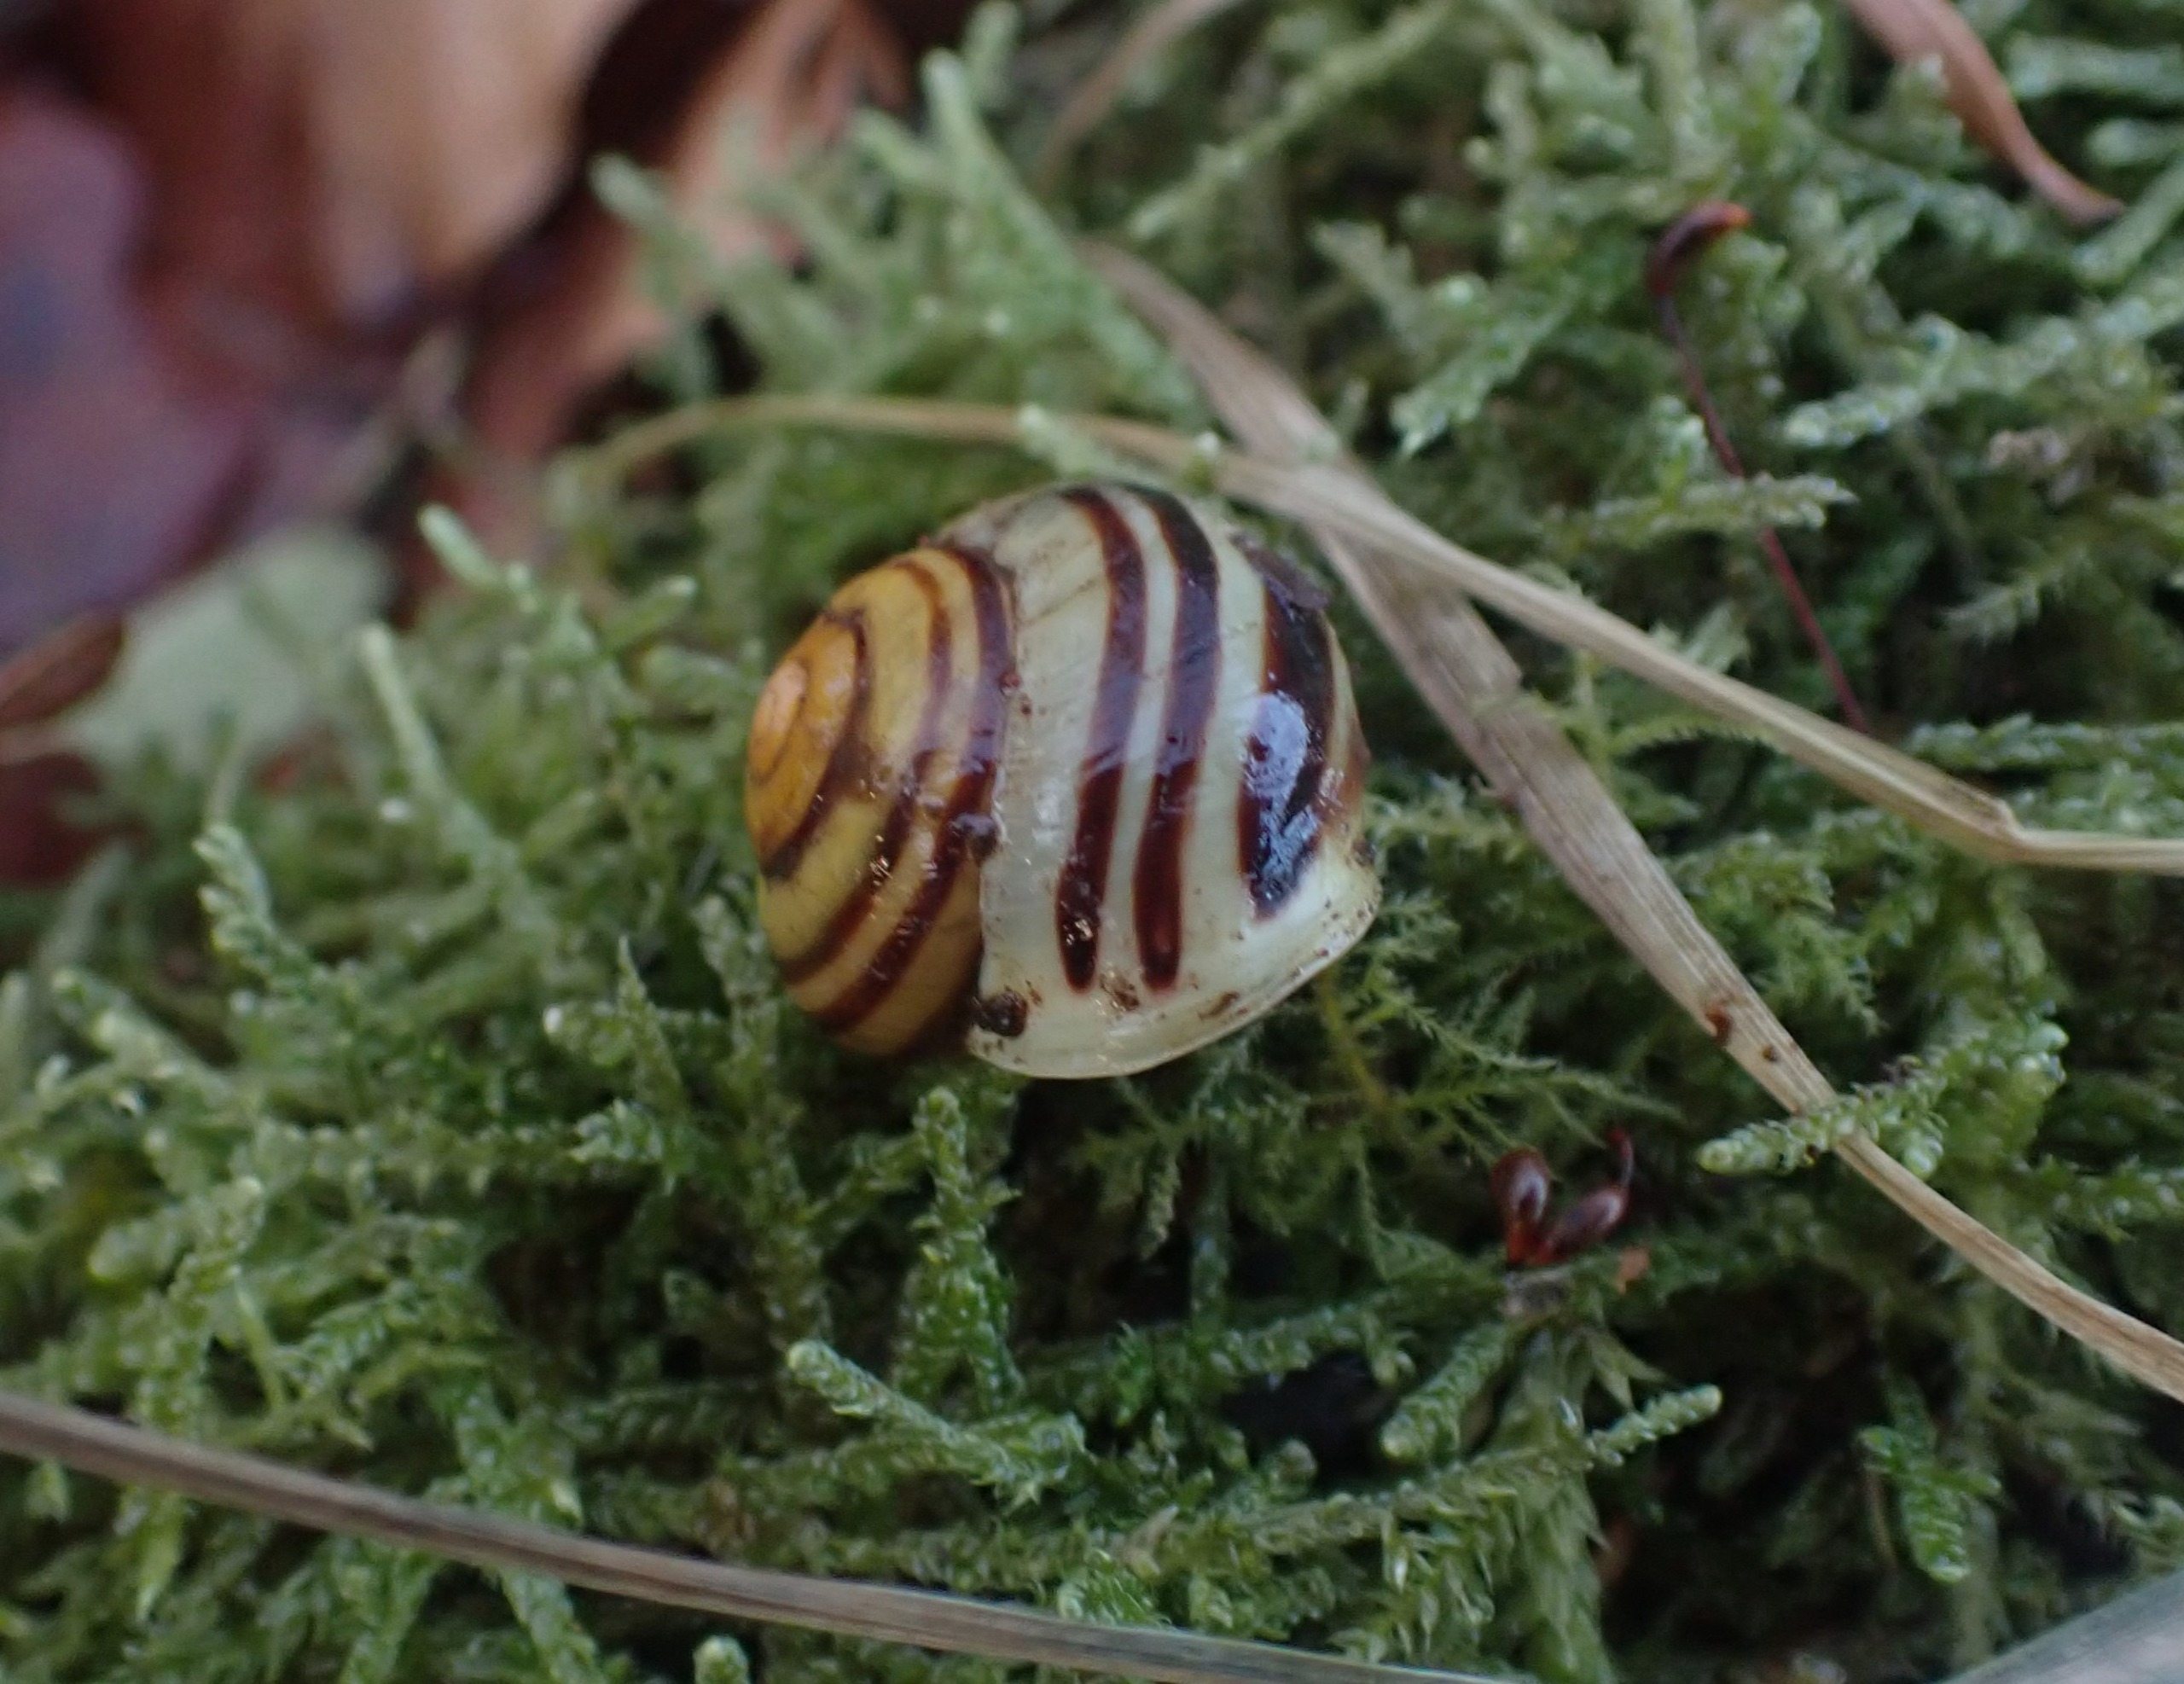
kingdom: Animalia
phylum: Mollusca
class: Gastropoda
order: Stylommatophora
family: Helicidae
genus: Cepaea
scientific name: Cepaea hortensis
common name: Havesnegl
